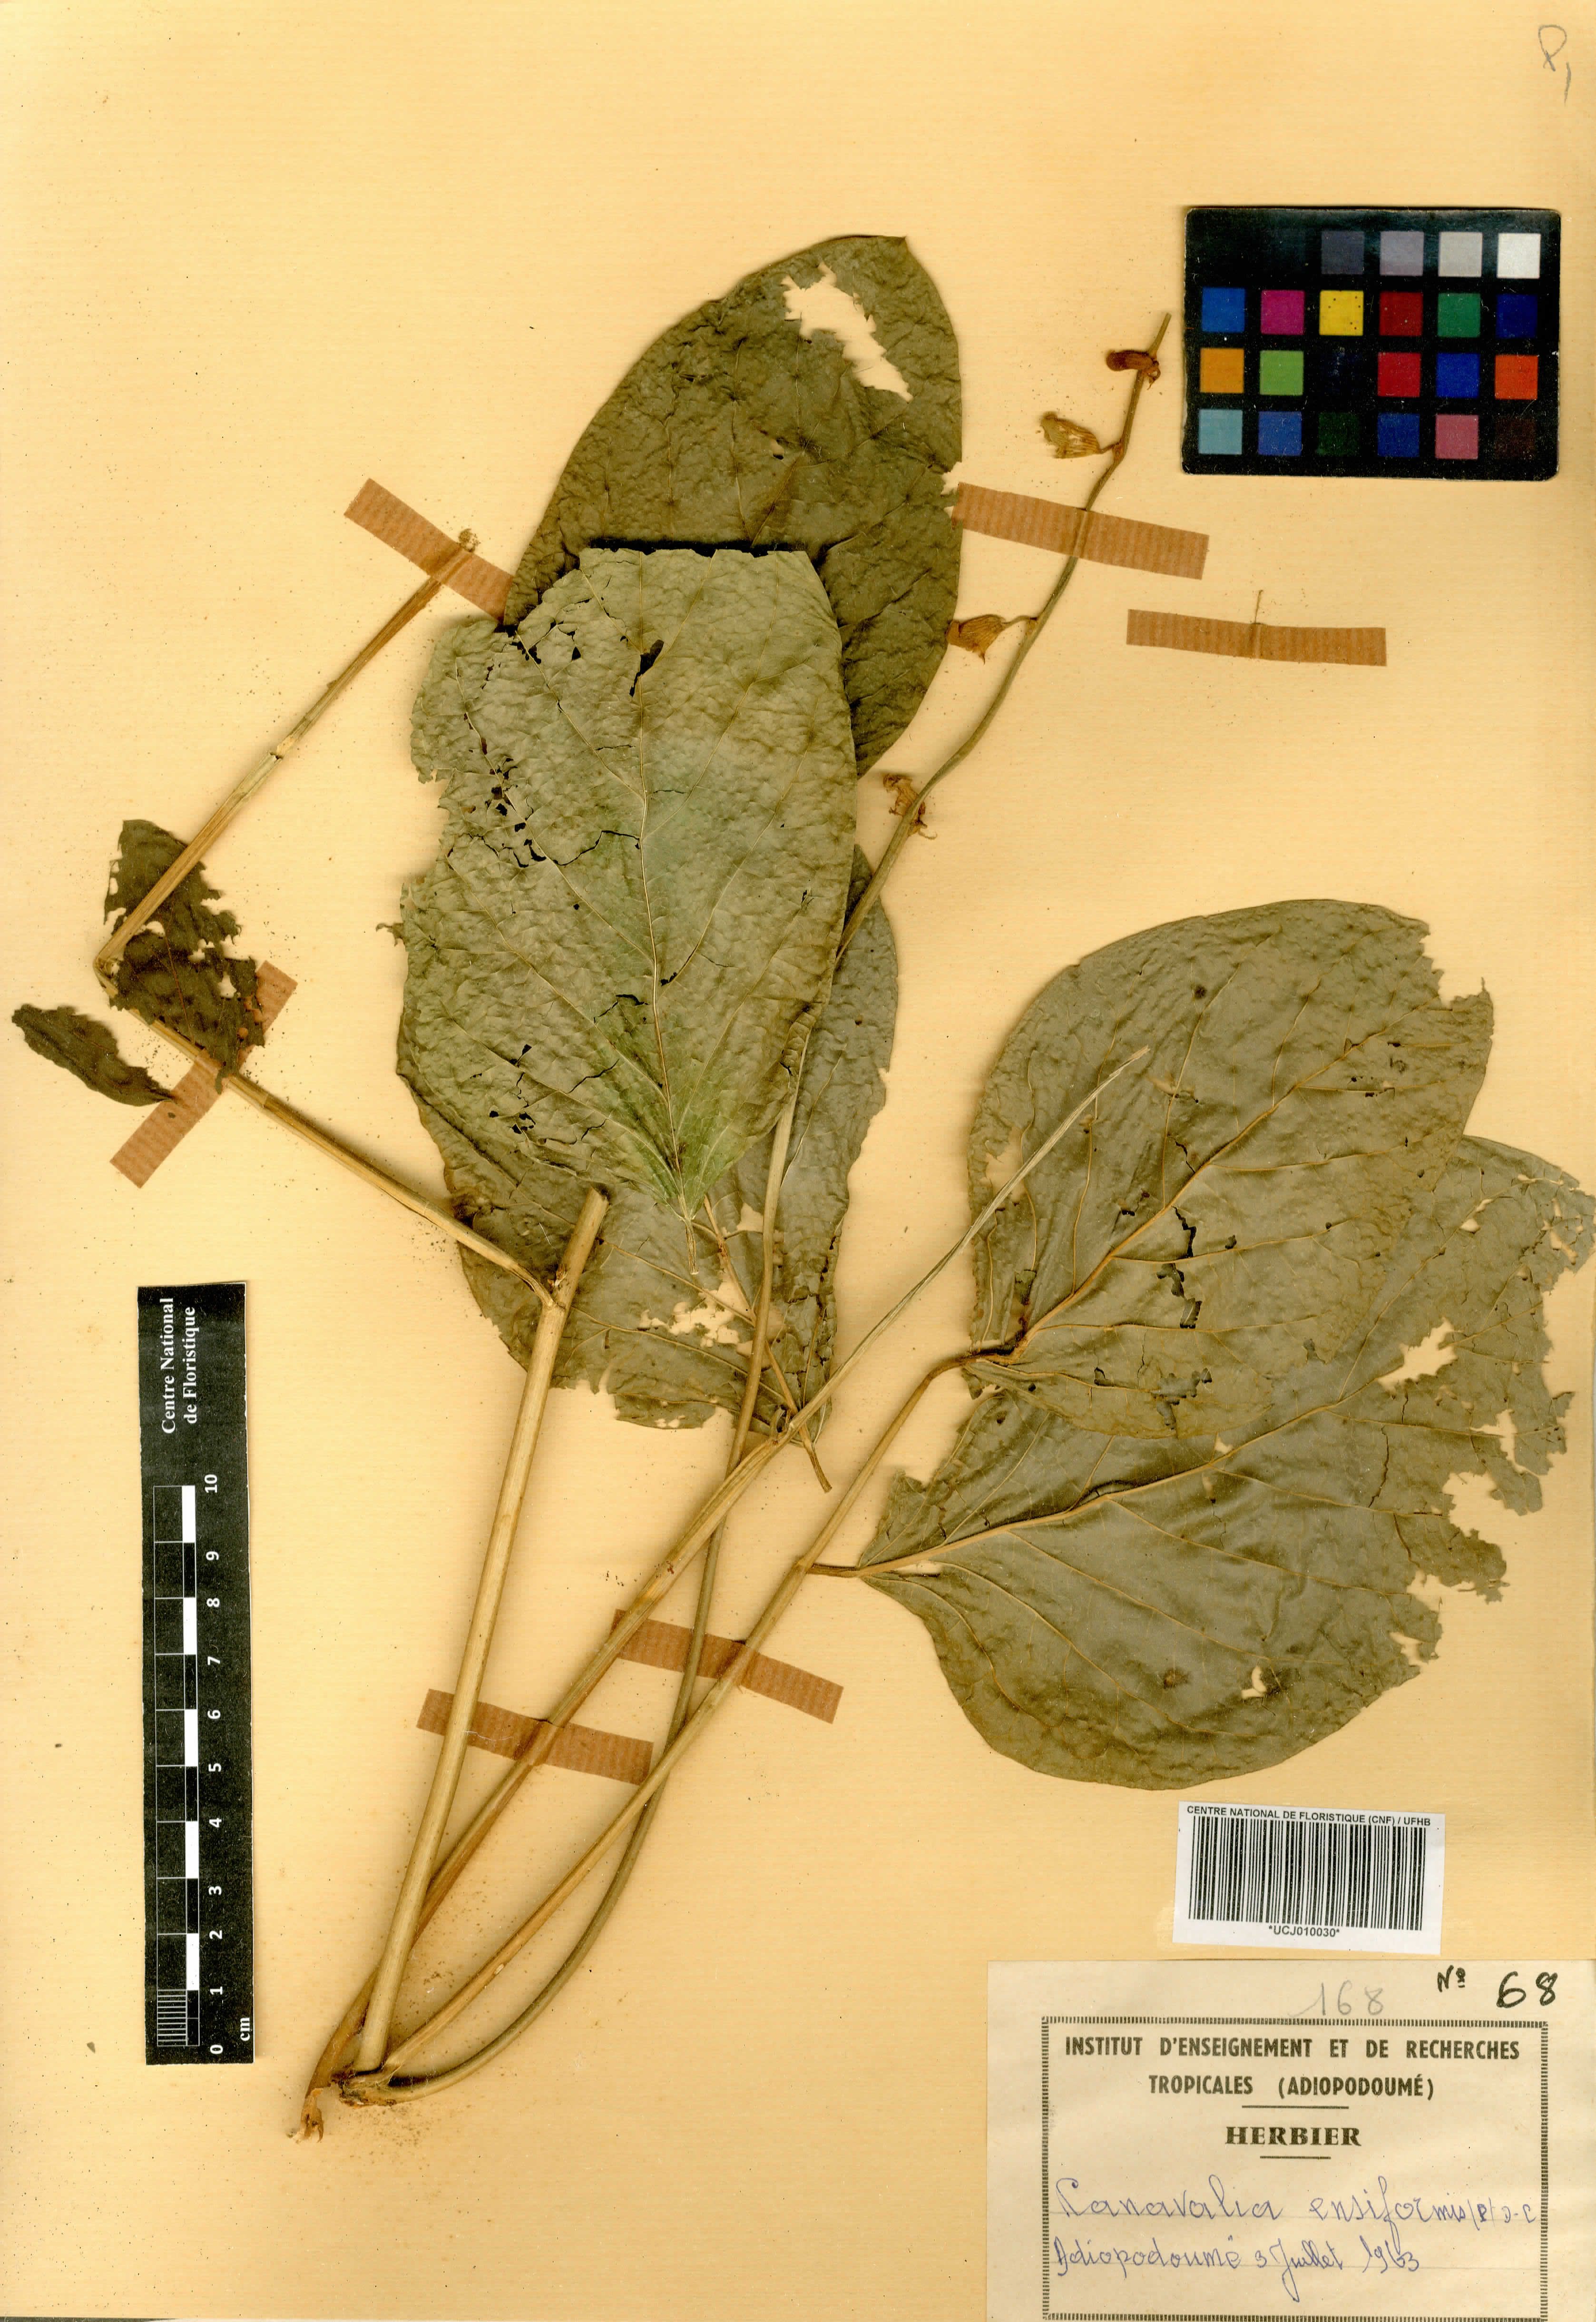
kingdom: Plantae
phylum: Tracheophyta
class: Magnoliopsida
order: Fabales
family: Fabaceae
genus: Canavalia
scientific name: Canavalia ensiformis
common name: Jack bean
